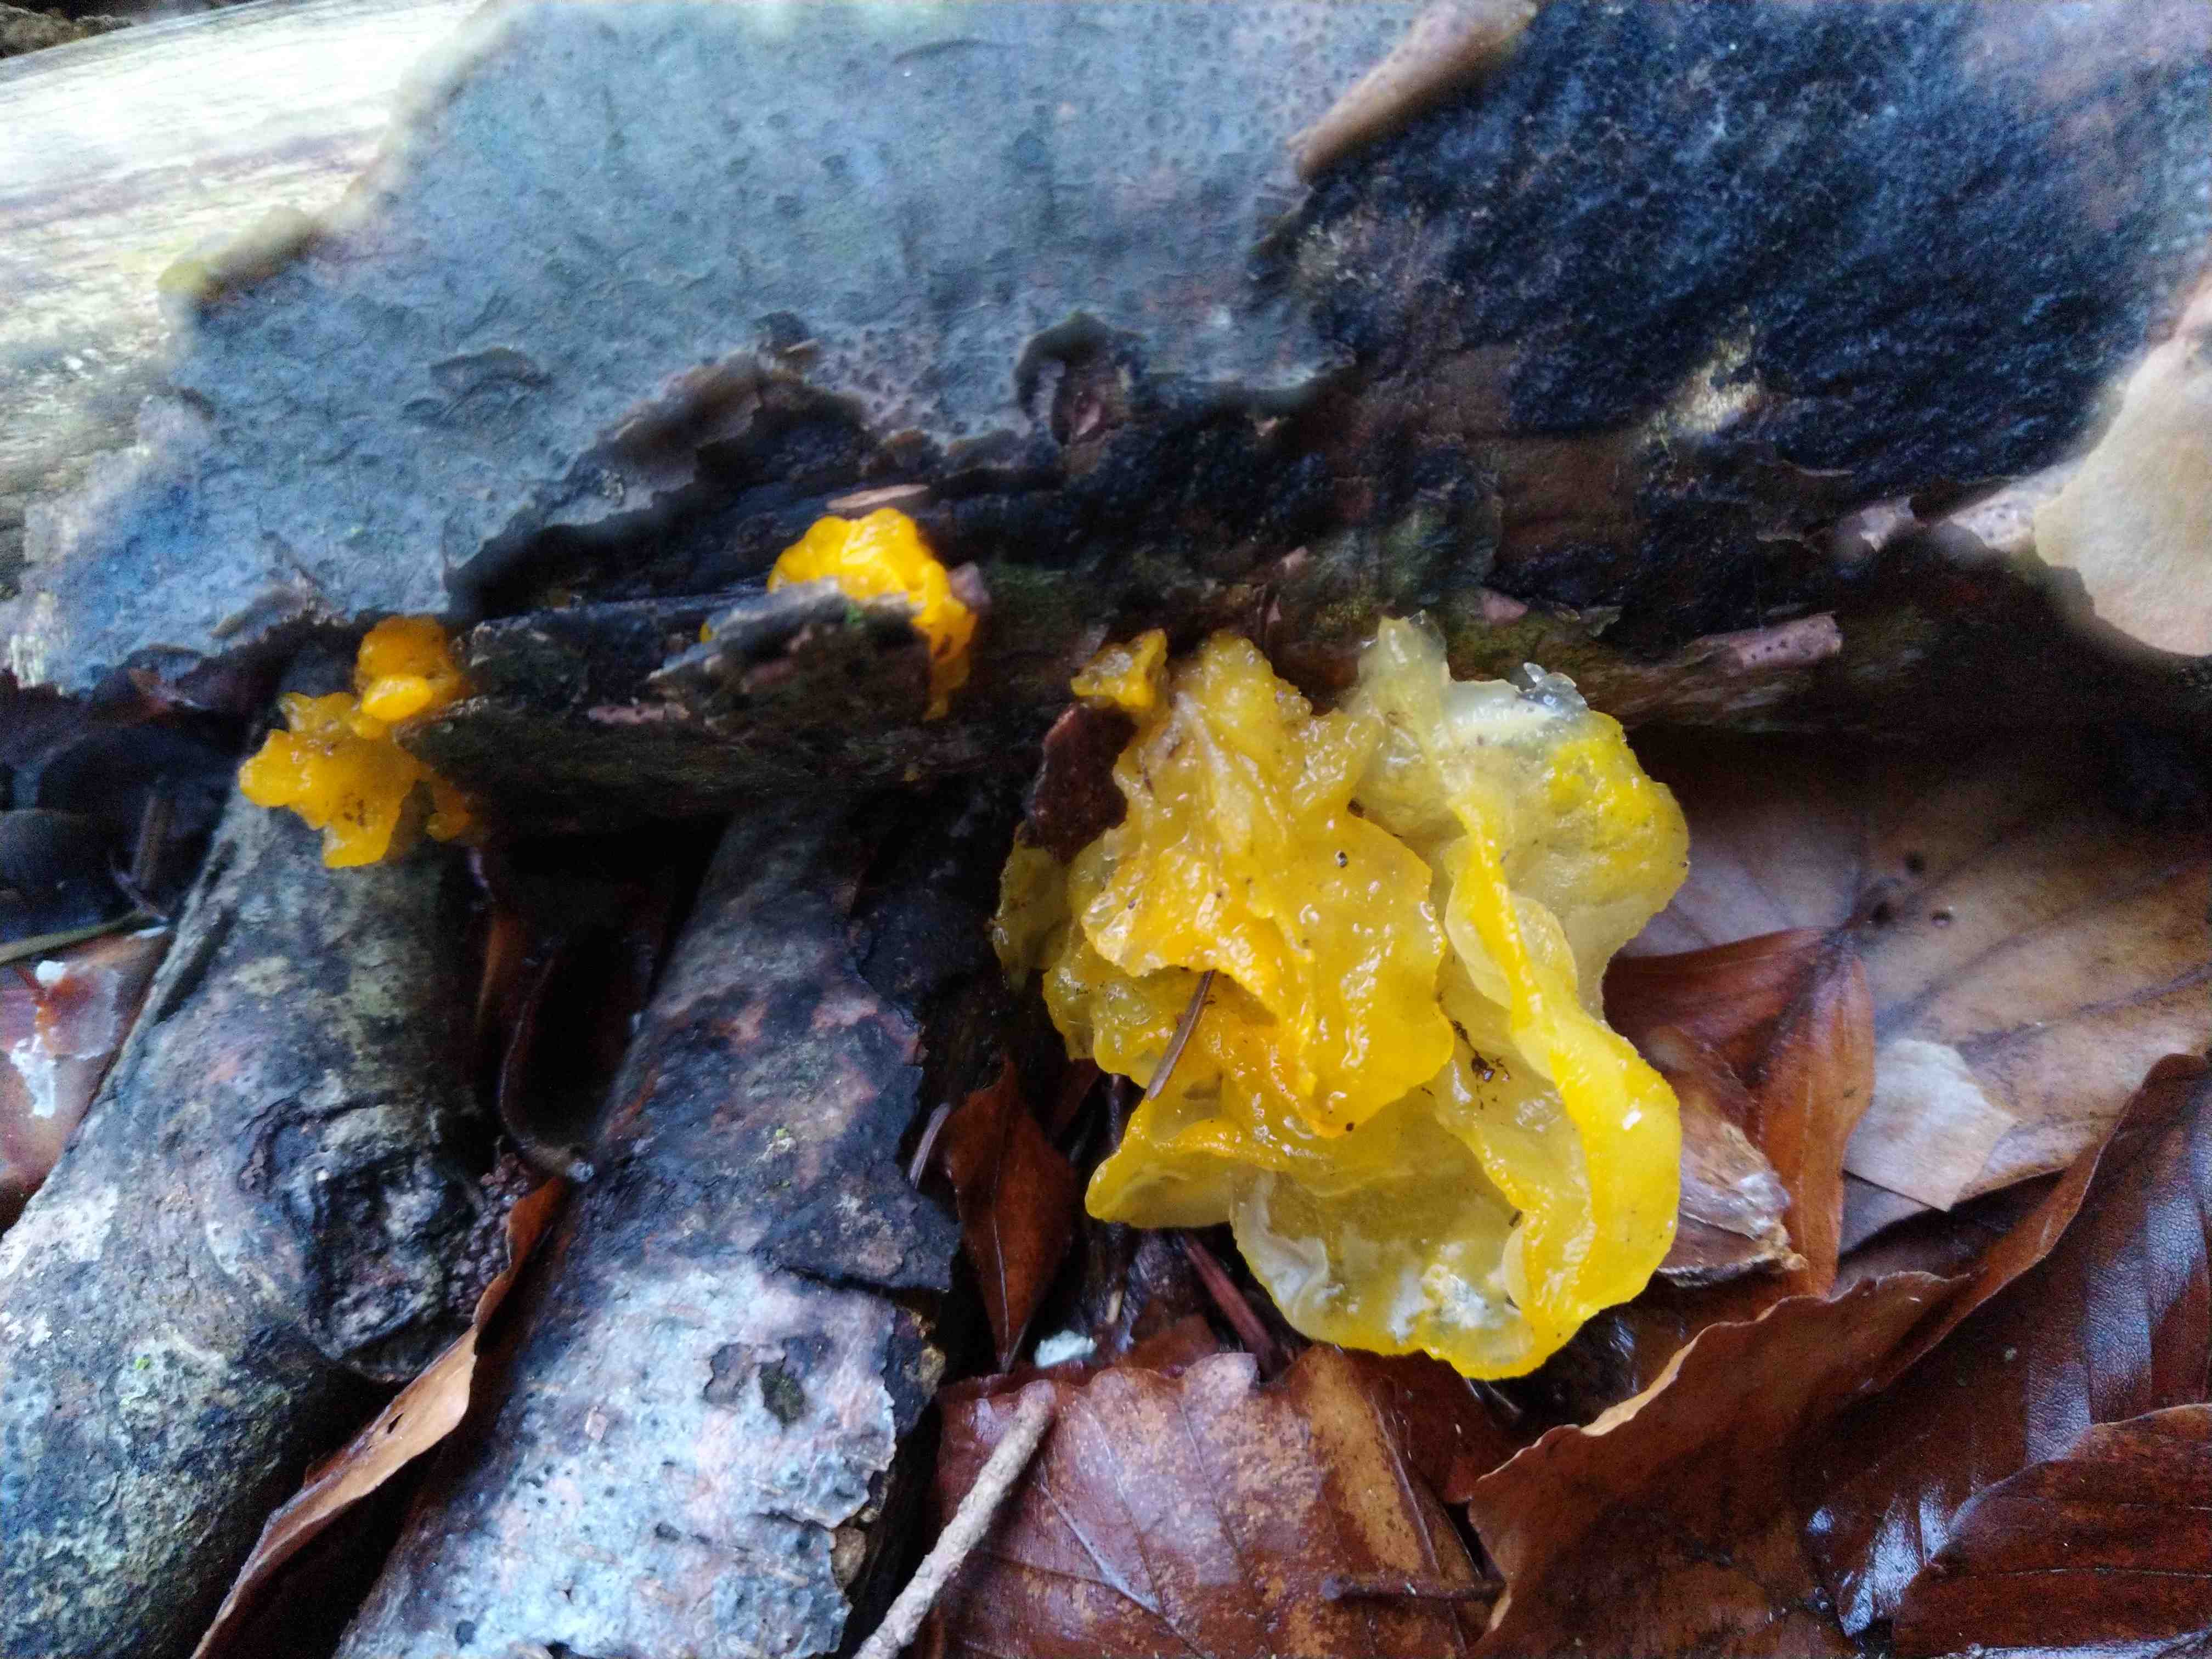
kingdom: Fungi
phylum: Basidiomycota
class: Tremellomycetes
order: Tremellales
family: Tremellaceae
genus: Tremella
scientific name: Tremella mesenterica
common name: gul bævresvamp
